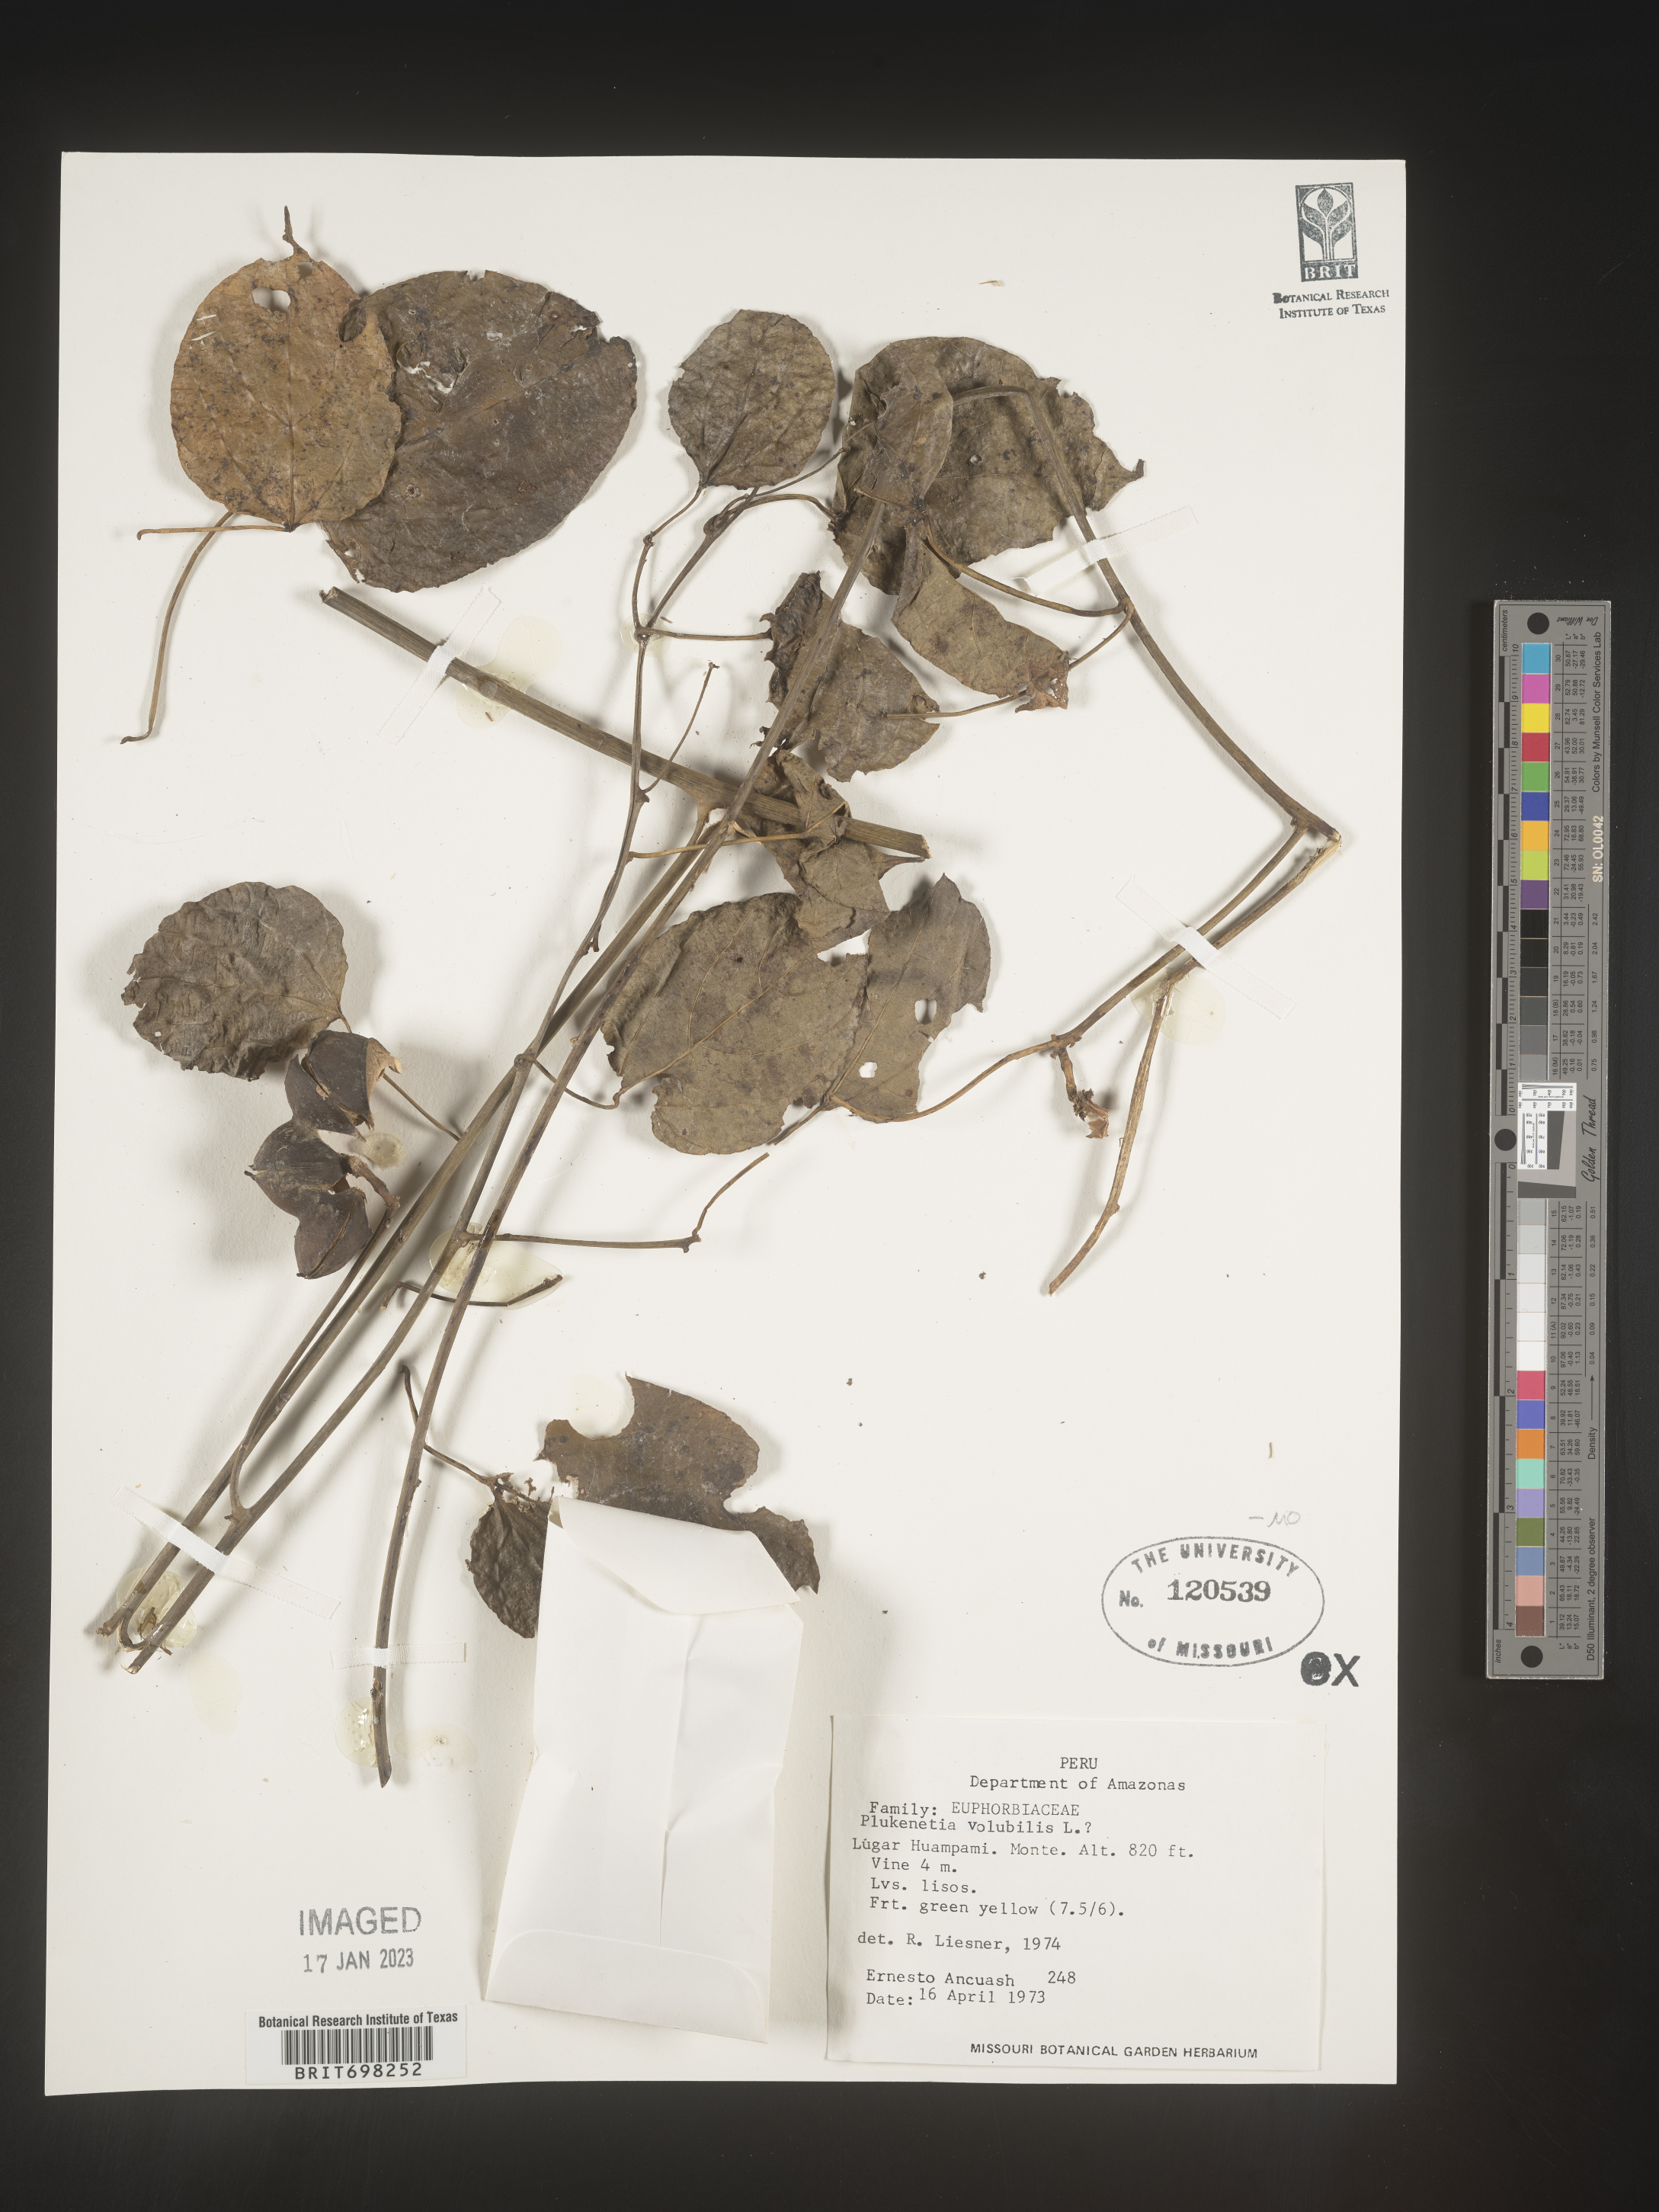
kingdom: Plantae
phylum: Tracheophyta
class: Magnoliopsida
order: Malpighiales
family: Euphorbiaceae
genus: Plukenetia
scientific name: Plukenetia volubilis
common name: Inca-peanut
